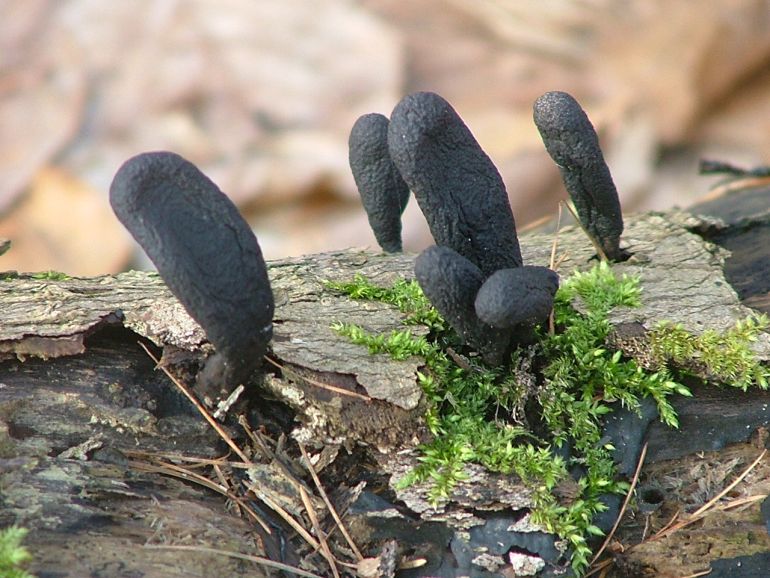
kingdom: Fungi
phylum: Ascomycota
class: Sordariomycetes
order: Xylariales
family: Xylariaceae
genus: Xylaria
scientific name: Xylaria longipes
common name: slank stødsvamp
